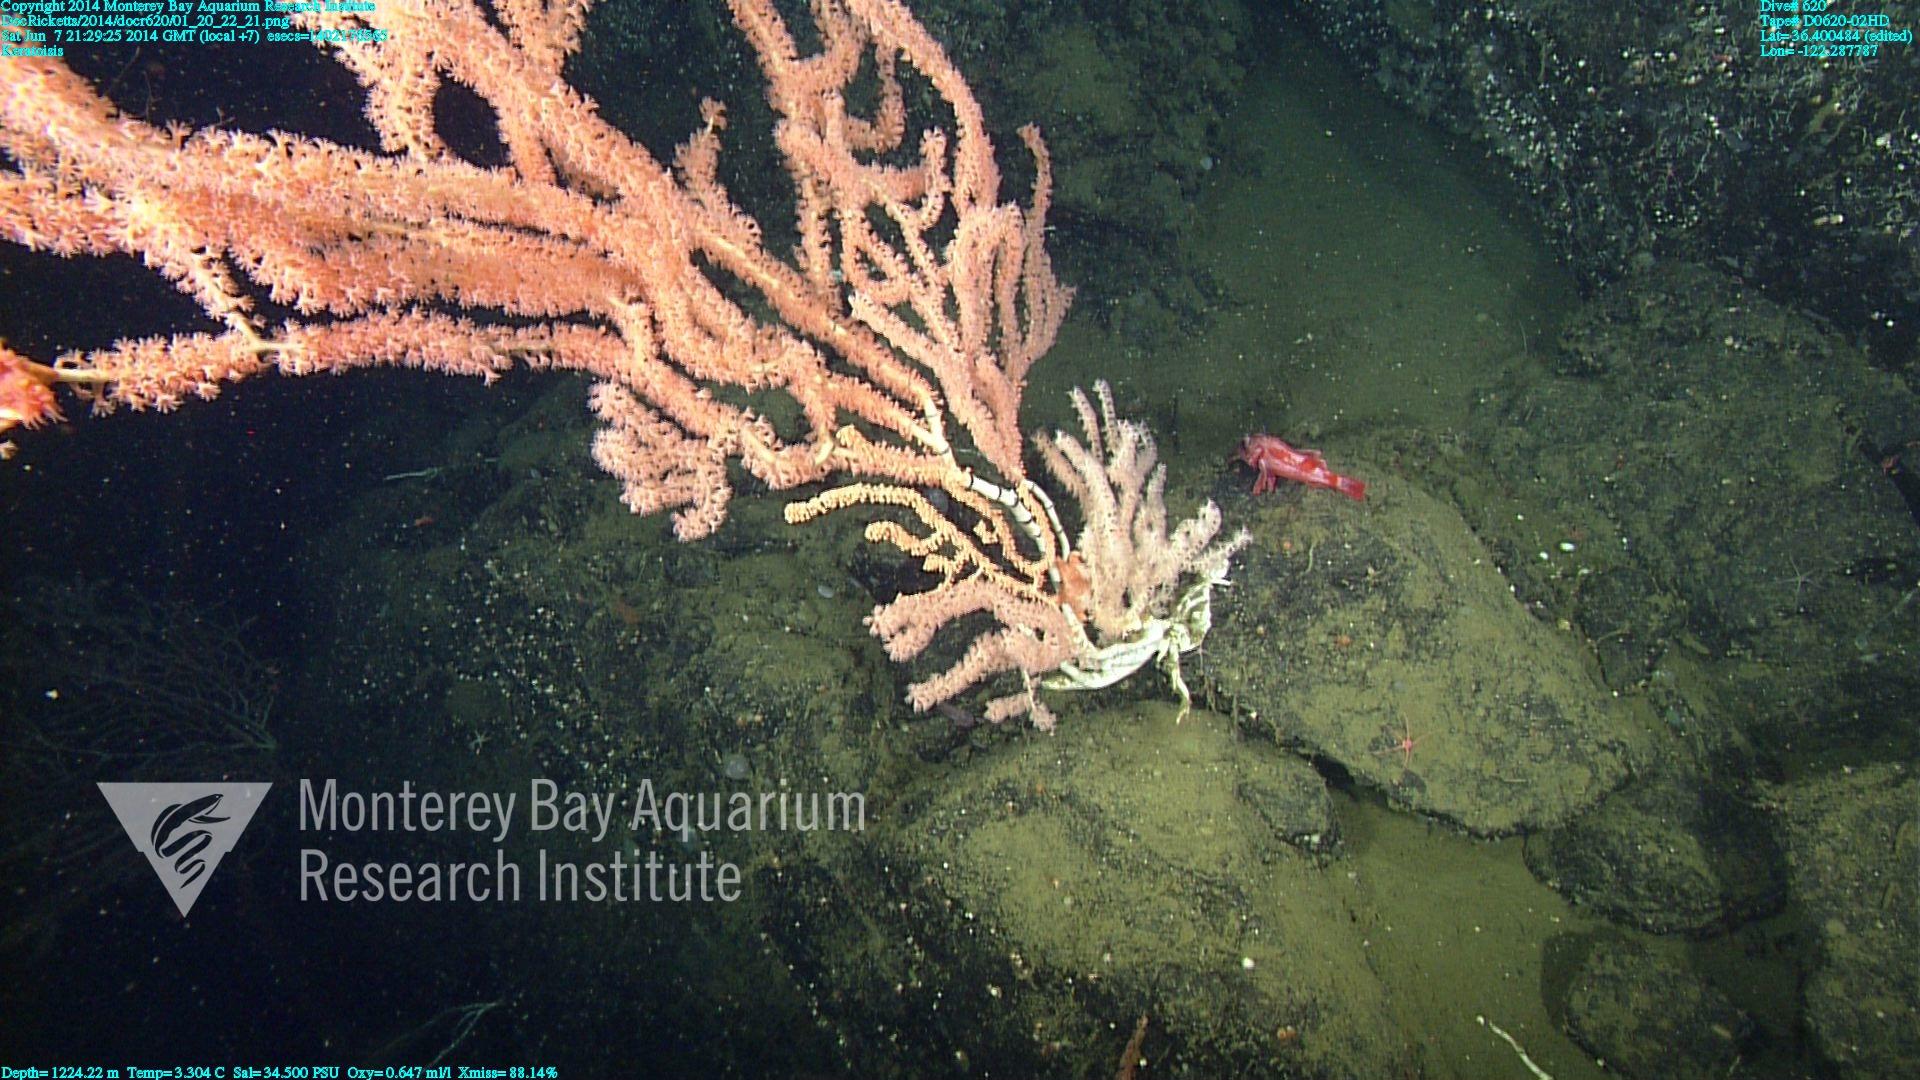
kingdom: Animalia
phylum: Cnidaria
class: Anthozoa
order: Scleralcyonacea
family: Keratoisididae
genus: Keratoisis
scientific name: Keratoisis
